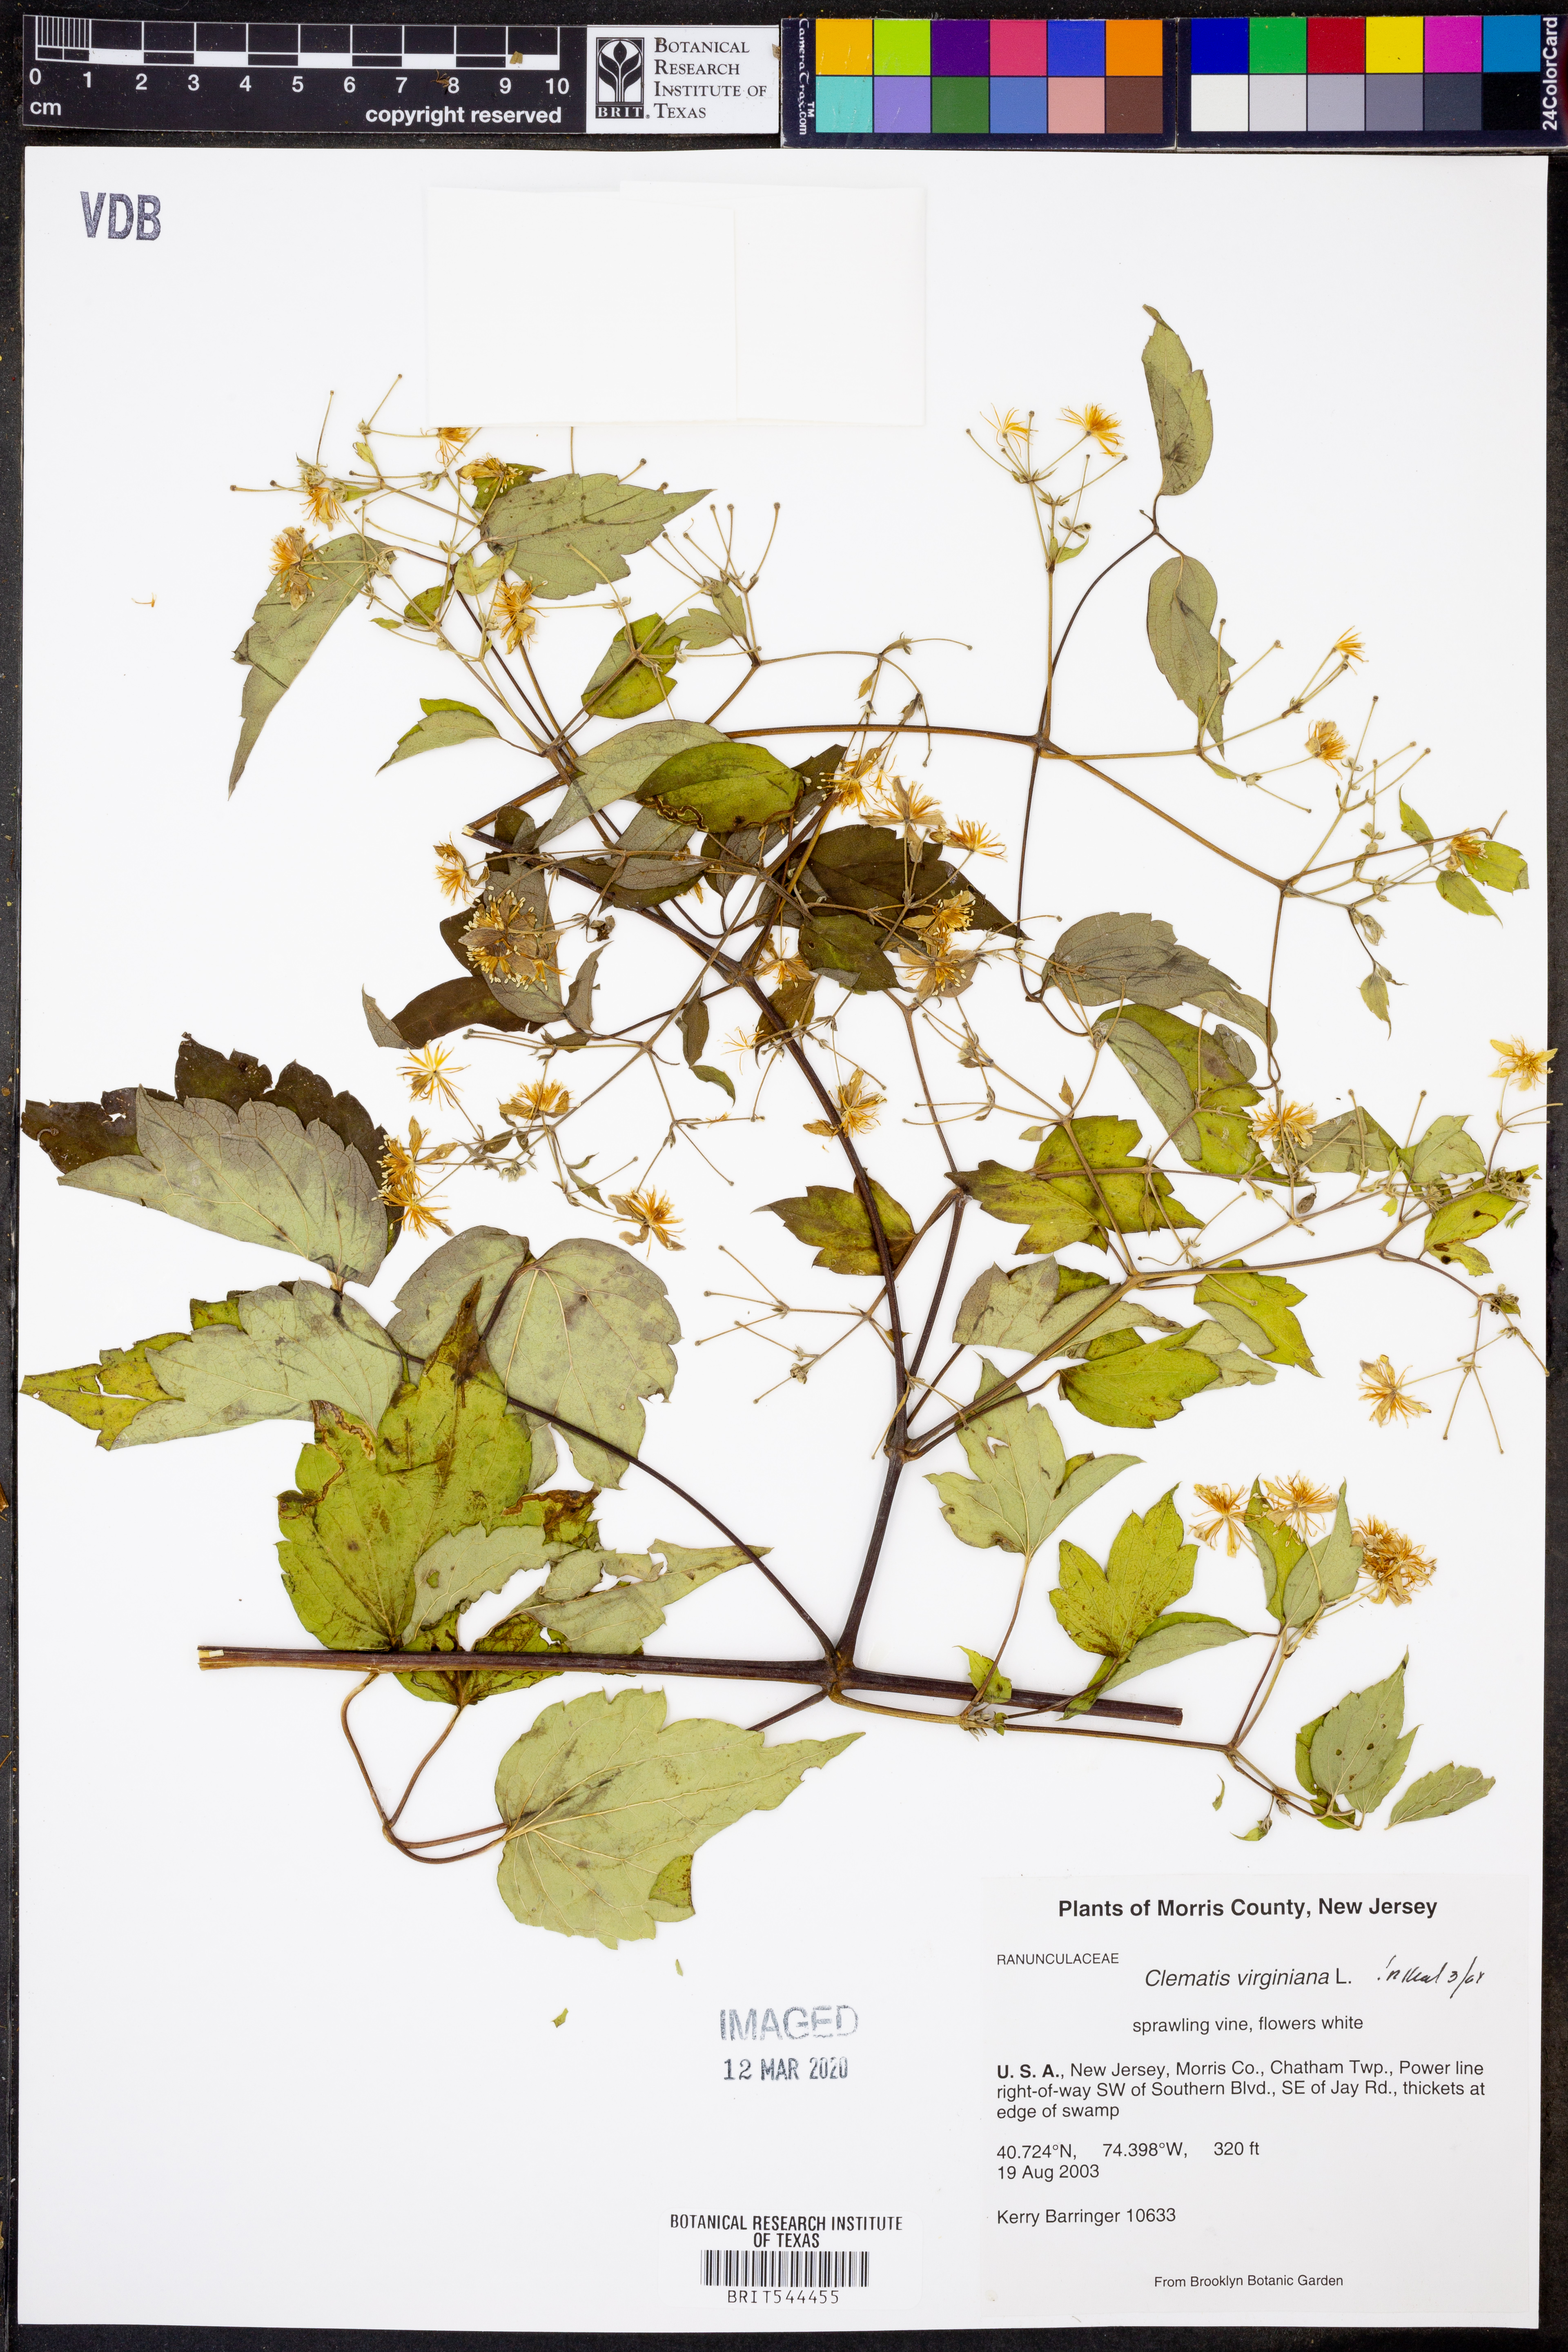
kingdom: Plantae
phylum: Tracheophyta
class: Magnoliopsida
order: Ranunculales
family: Ranunculaceae
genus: Clematis
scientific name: Clematis virginiana
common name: Virgin's-bower
